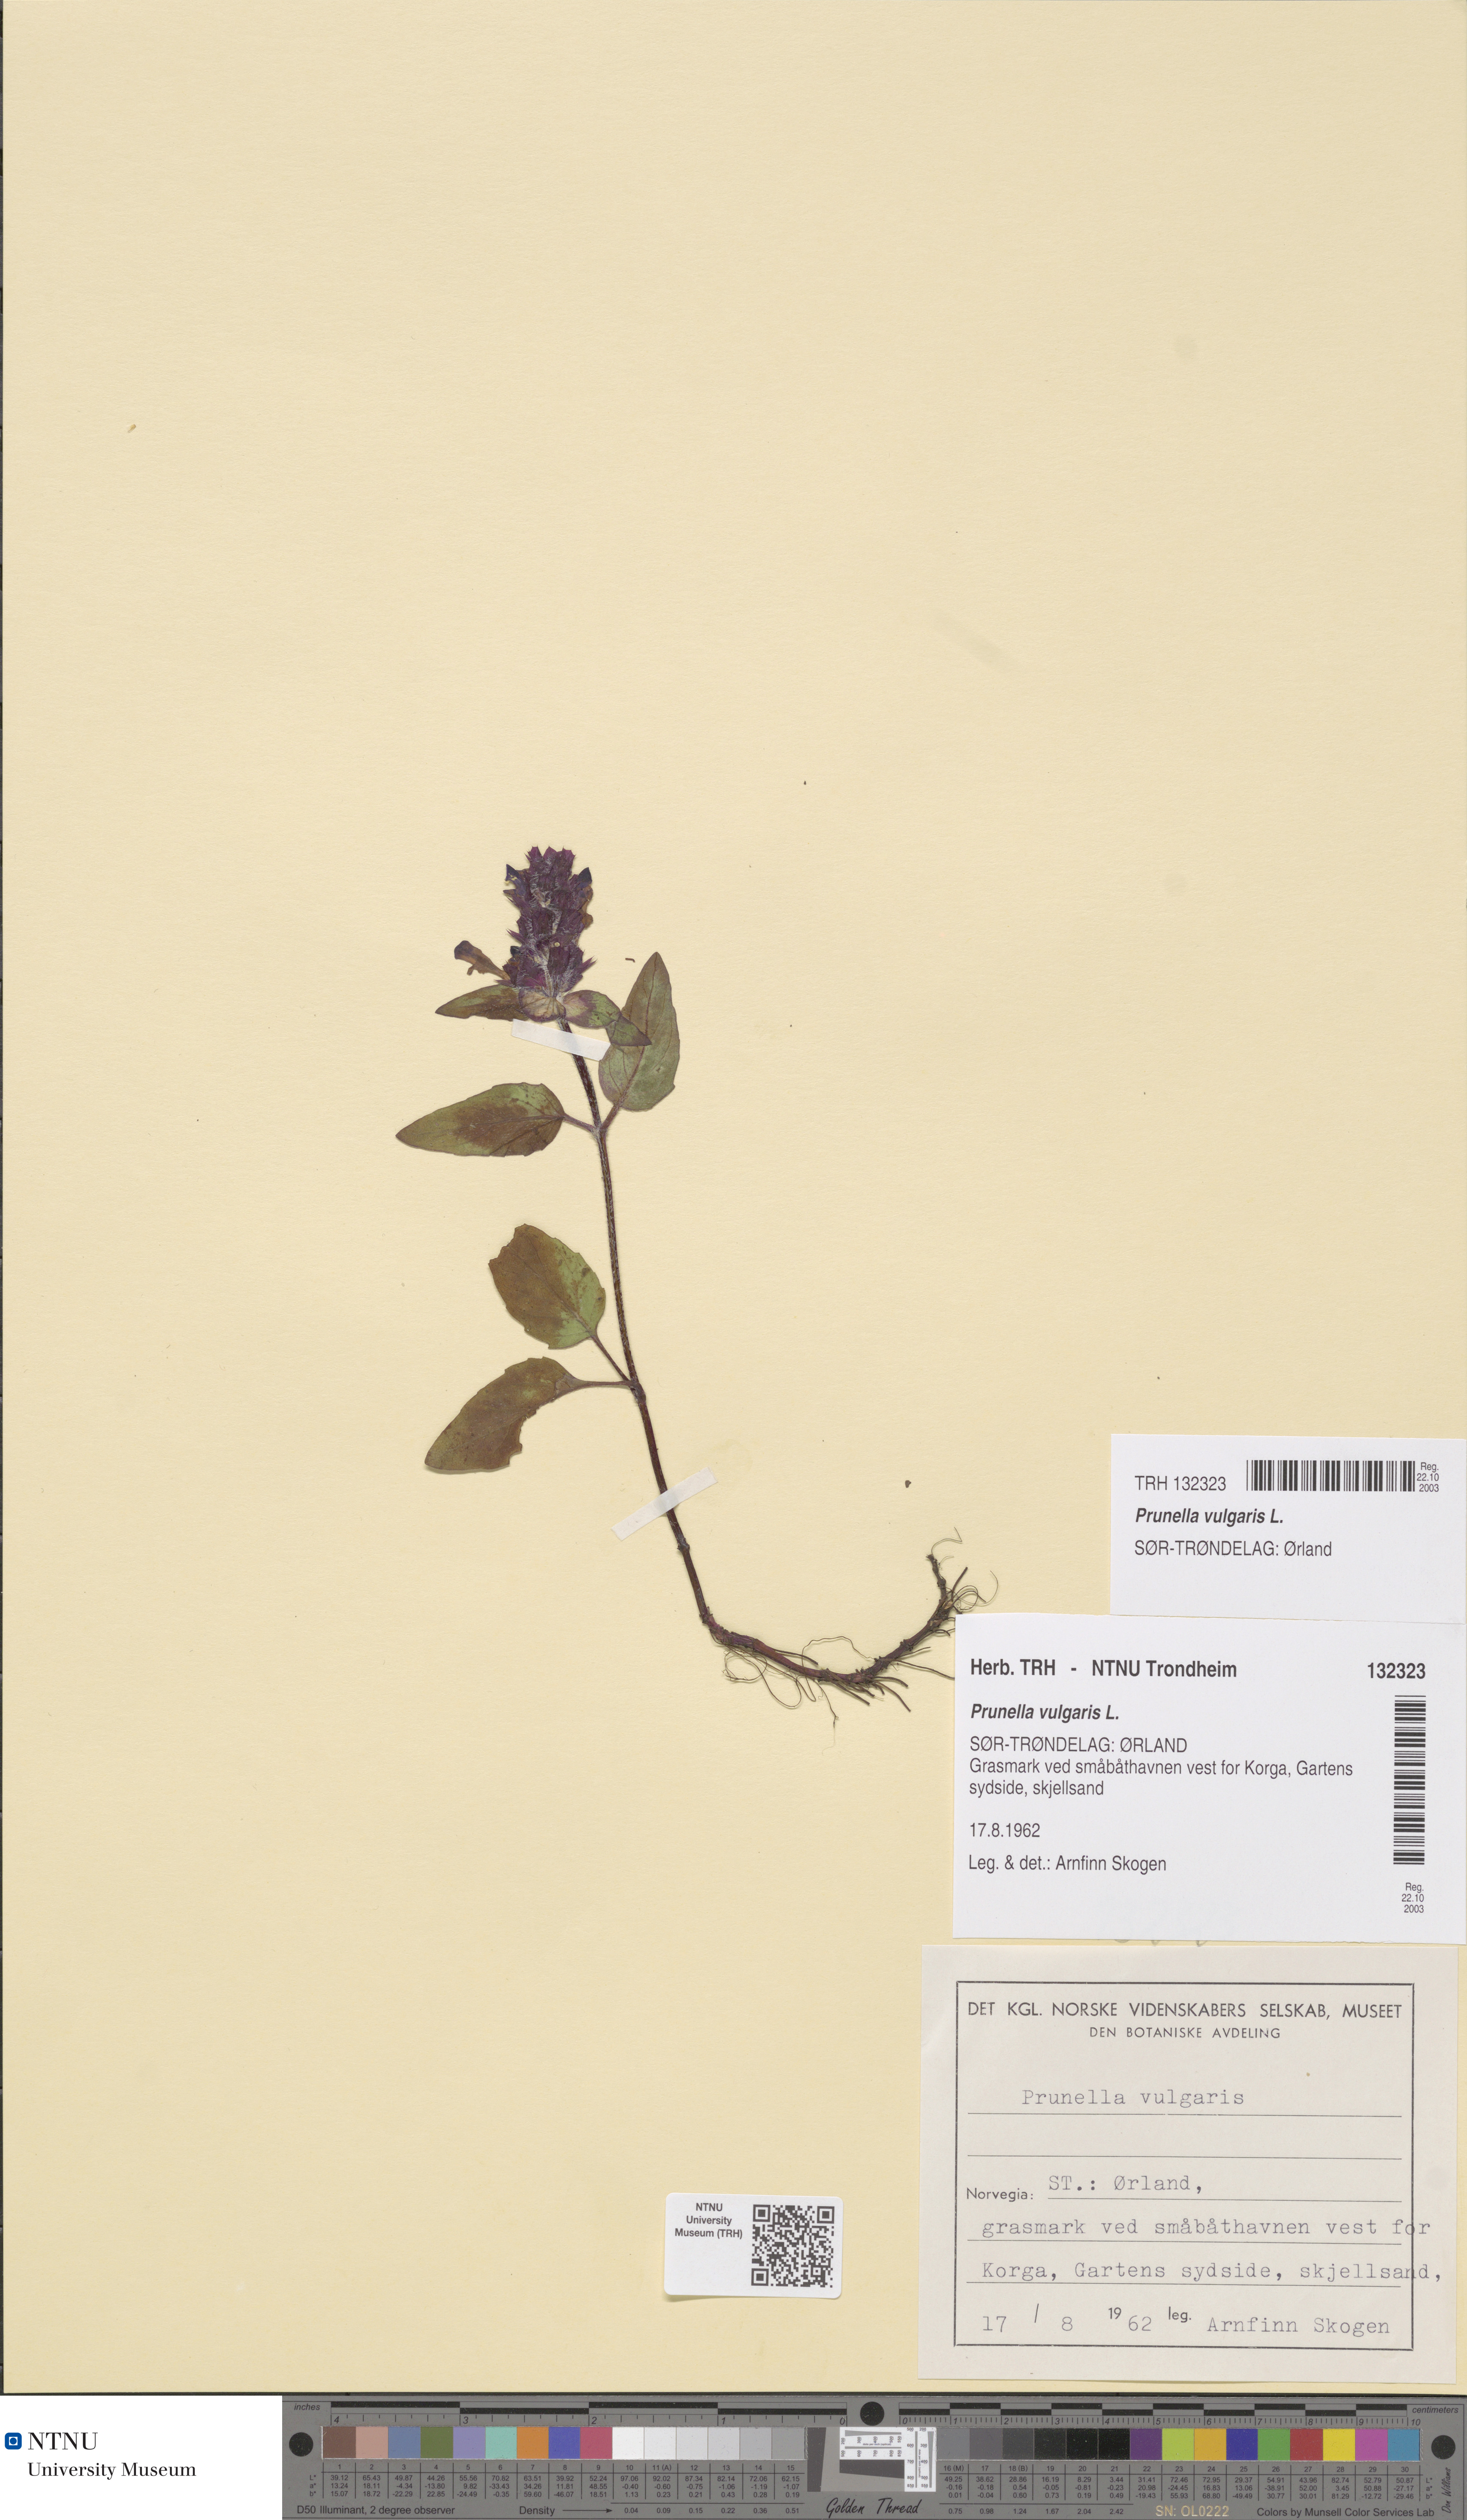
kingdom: Plantae
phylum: Tracheophyta
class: Magnoliopsida
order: Lamiales
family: Lamiaceae
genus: Prunella
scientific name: Prunella vulgaris
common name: Heal-all
